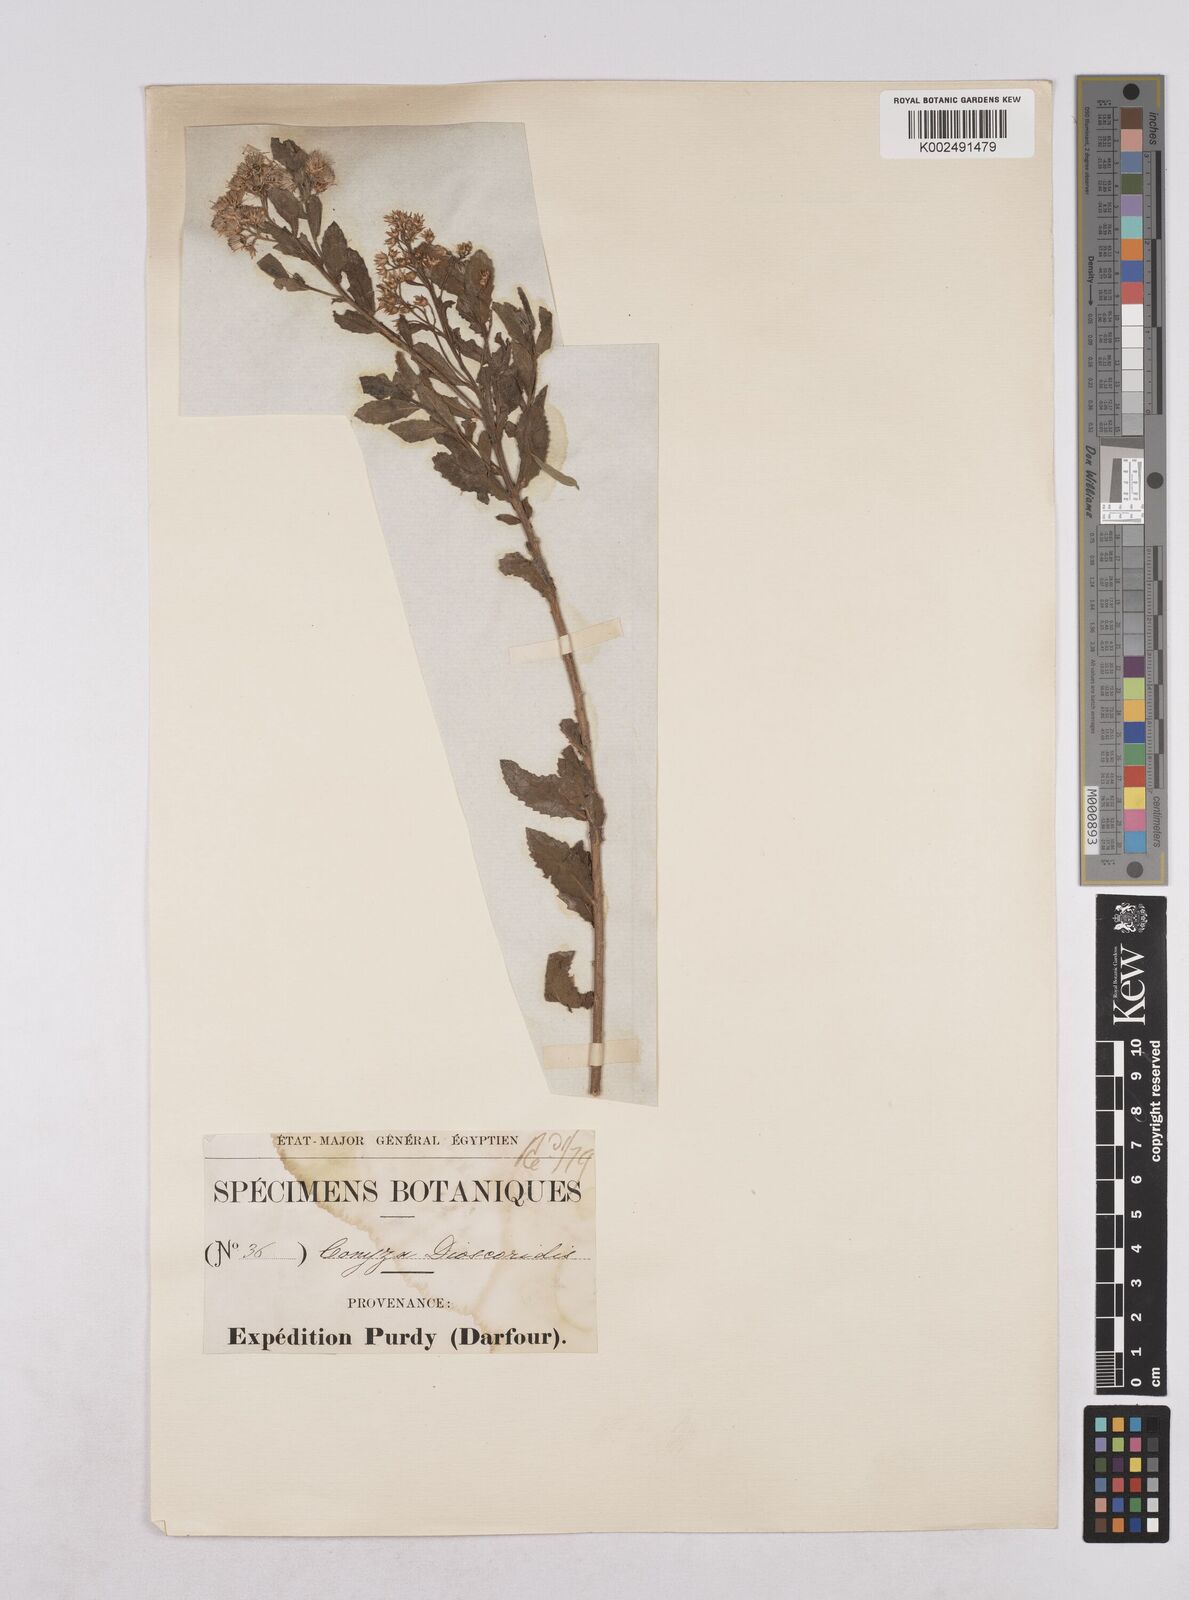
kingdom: Plantae
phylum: Tracheophyta
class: Magnoliopsida
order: Asterales
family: Asteraceae
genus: Pluchea
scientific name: Pluchea dioscoridis
